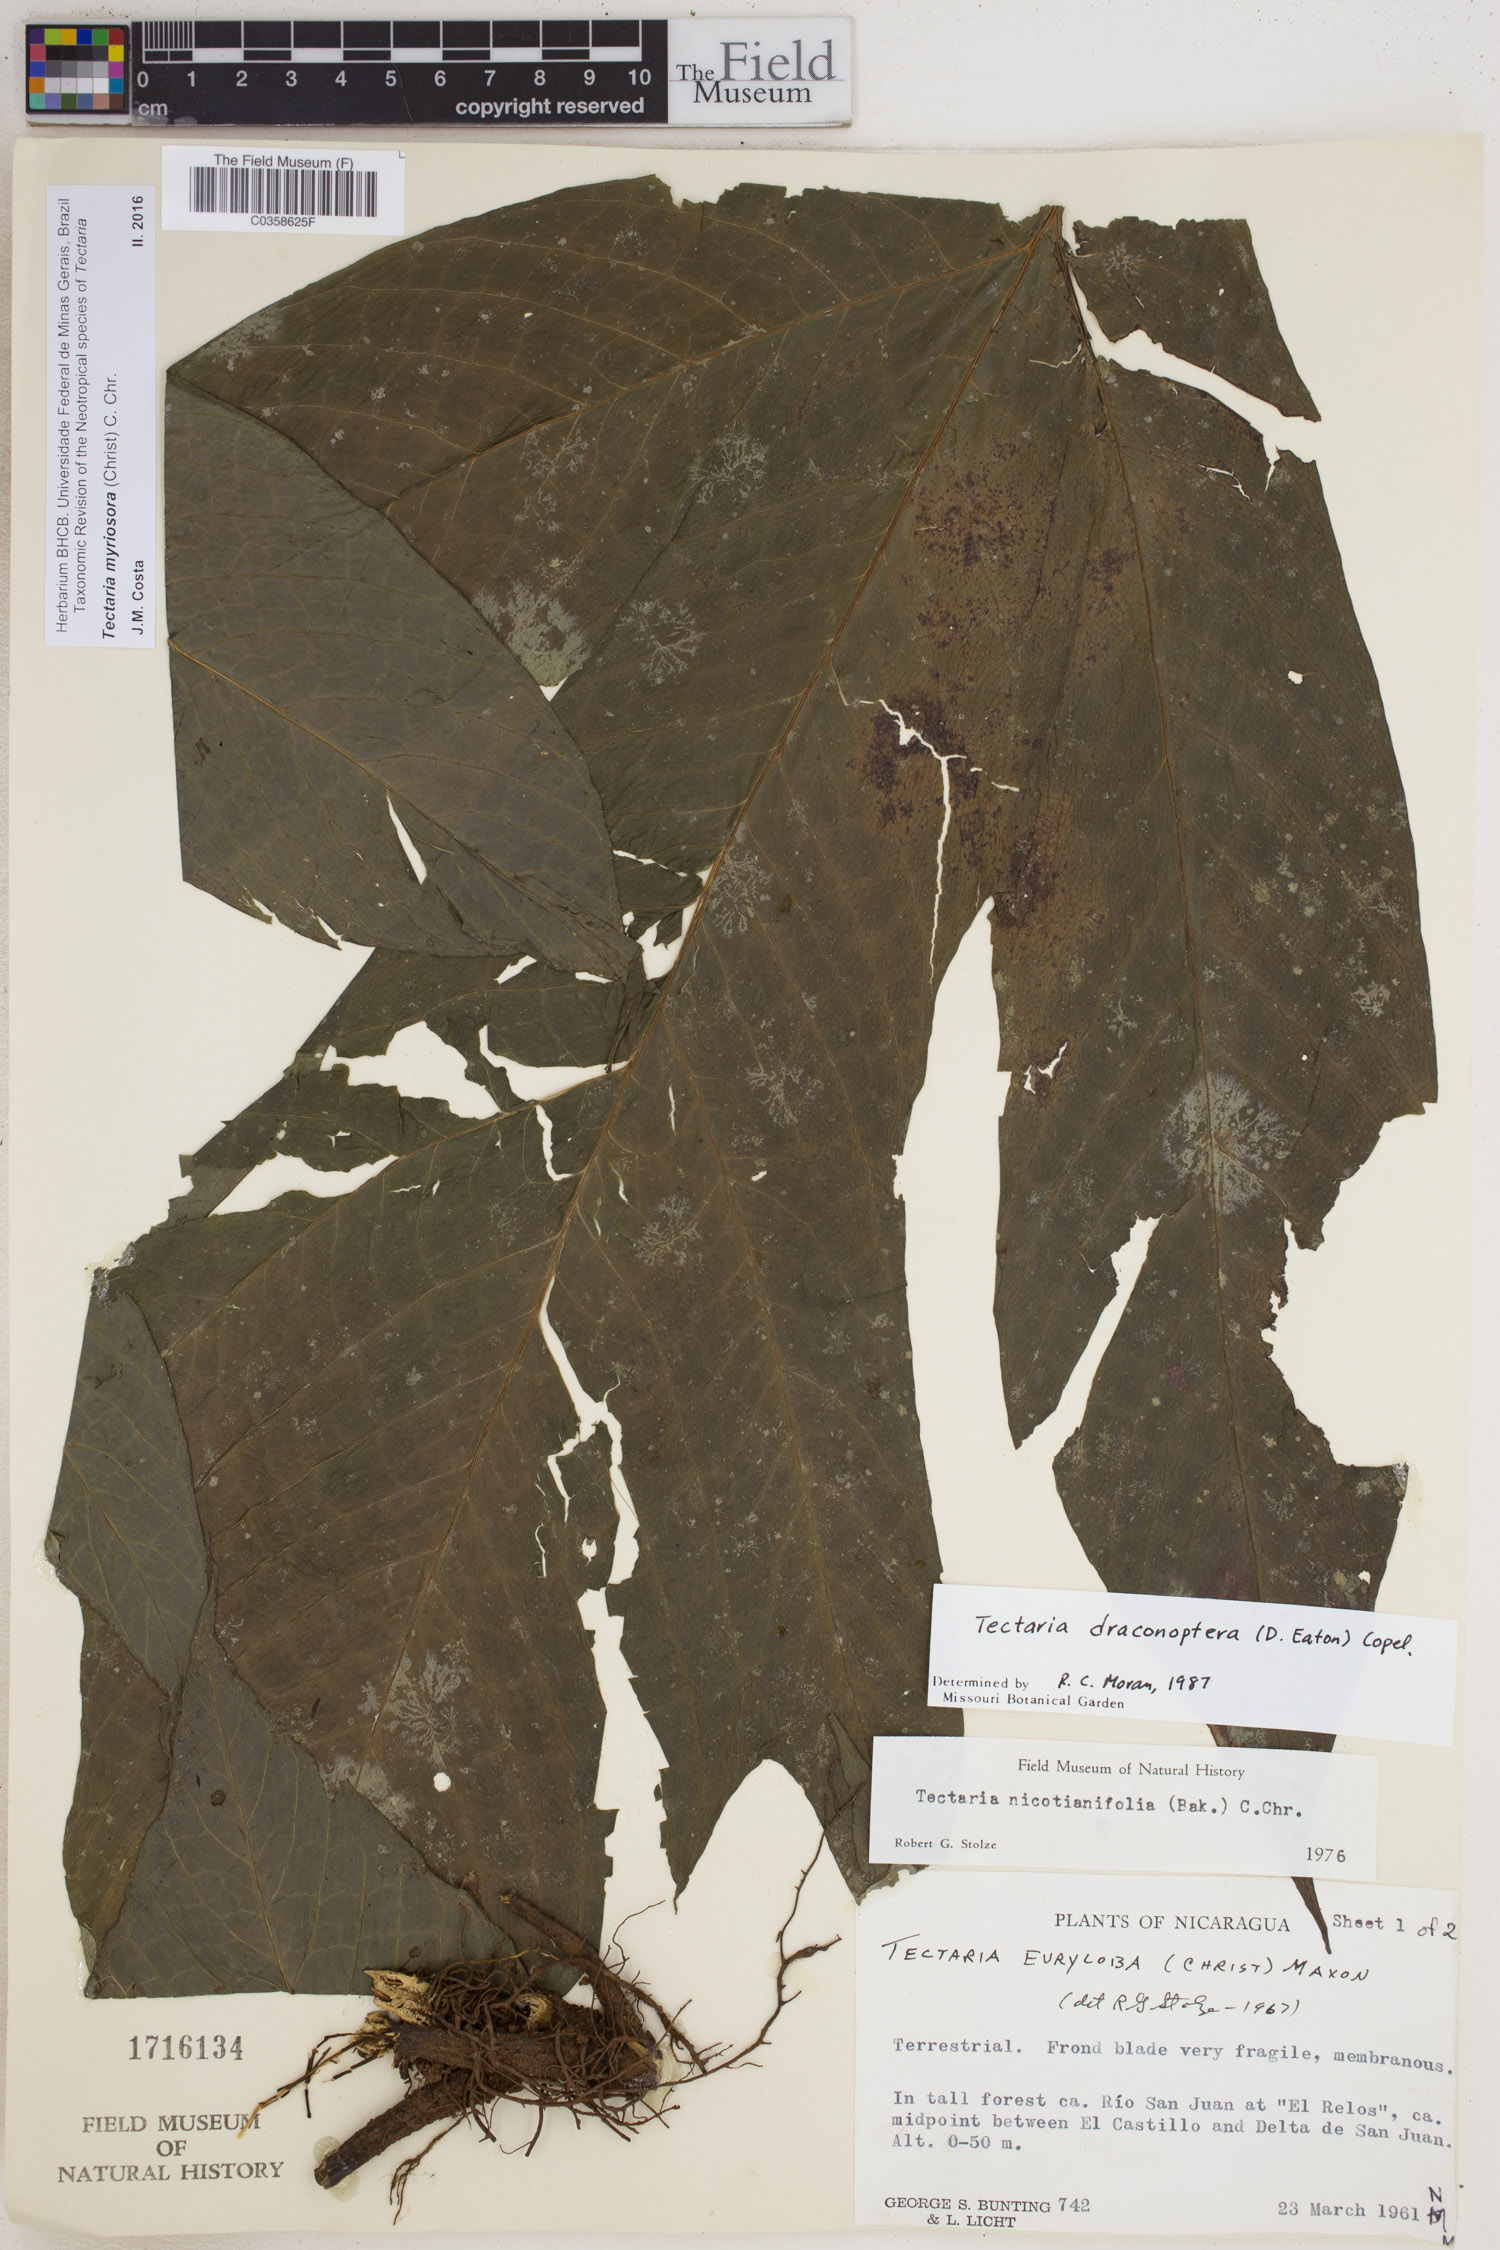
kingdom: Plantae
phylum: Tracheophyta
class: Polypodiopsida
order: Polypodiales
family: Tectariaceae
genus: Draconopteris
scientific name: Draconopteris draconoptera
